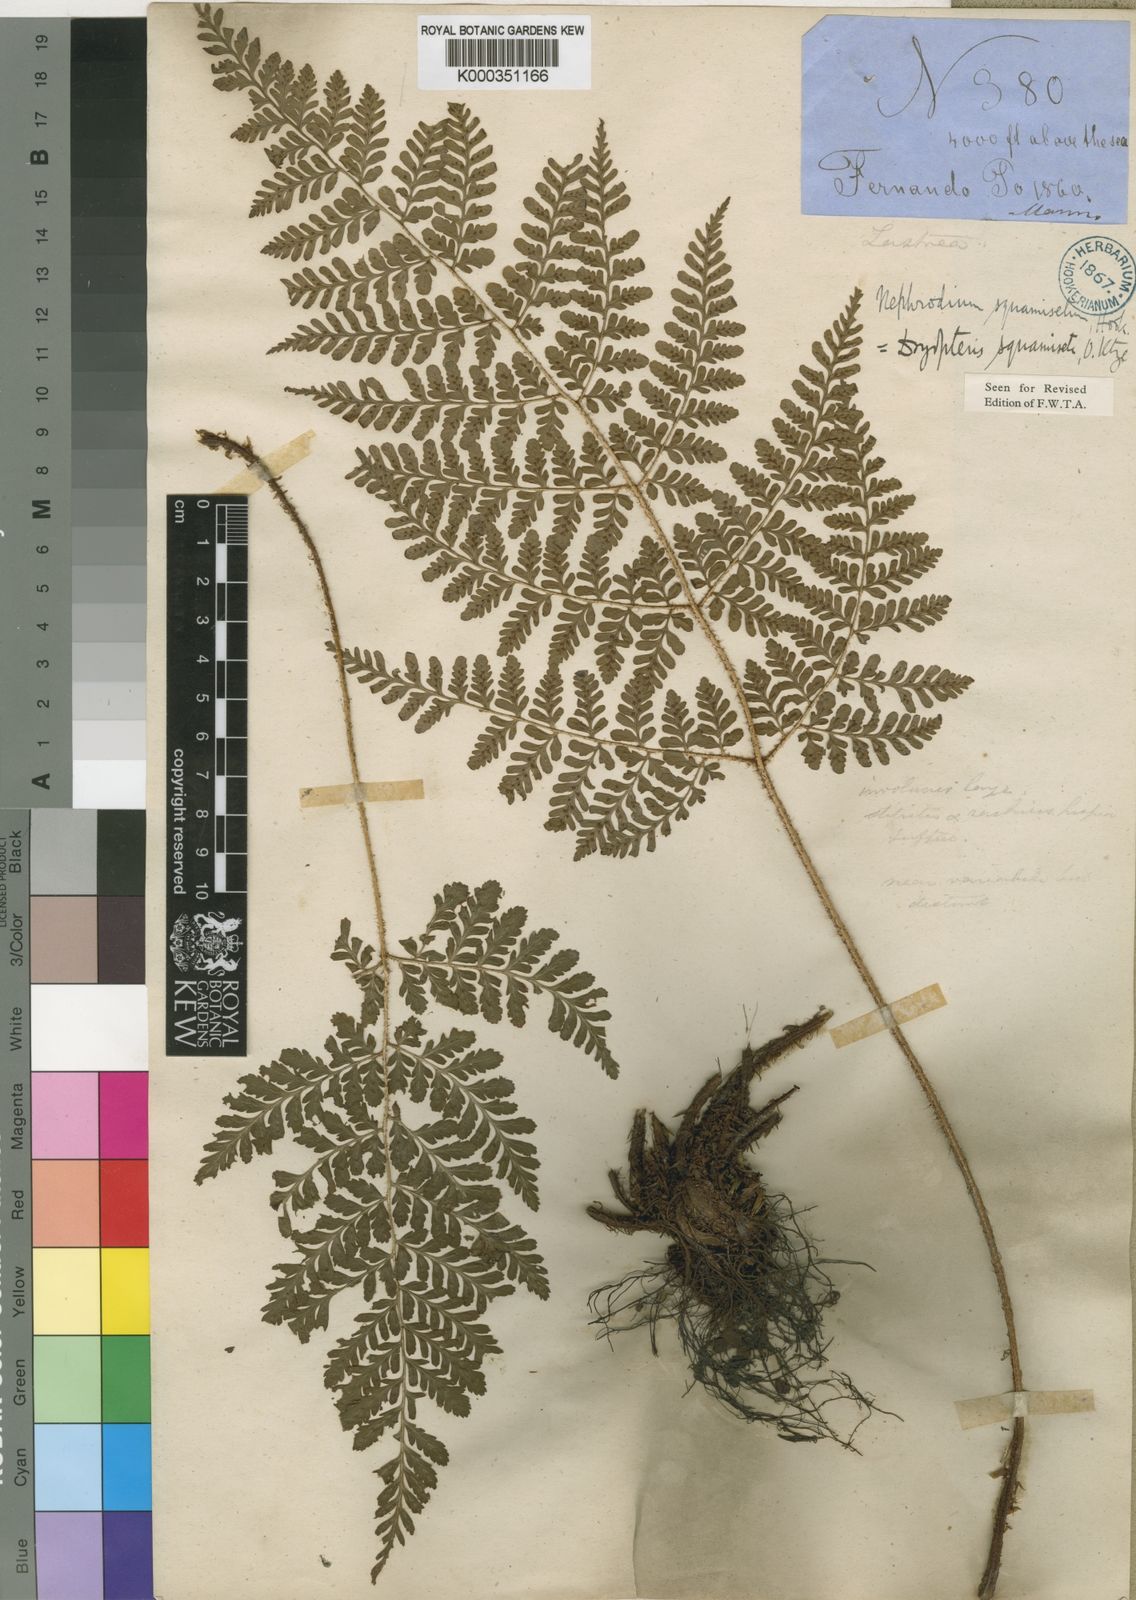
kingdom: Plantae
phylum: Tracheophyta
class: Polypodiopsida
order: Polypodiales
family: Dryopteridaceae
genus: Dryopteris
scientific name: Dryopteris squamiseta
